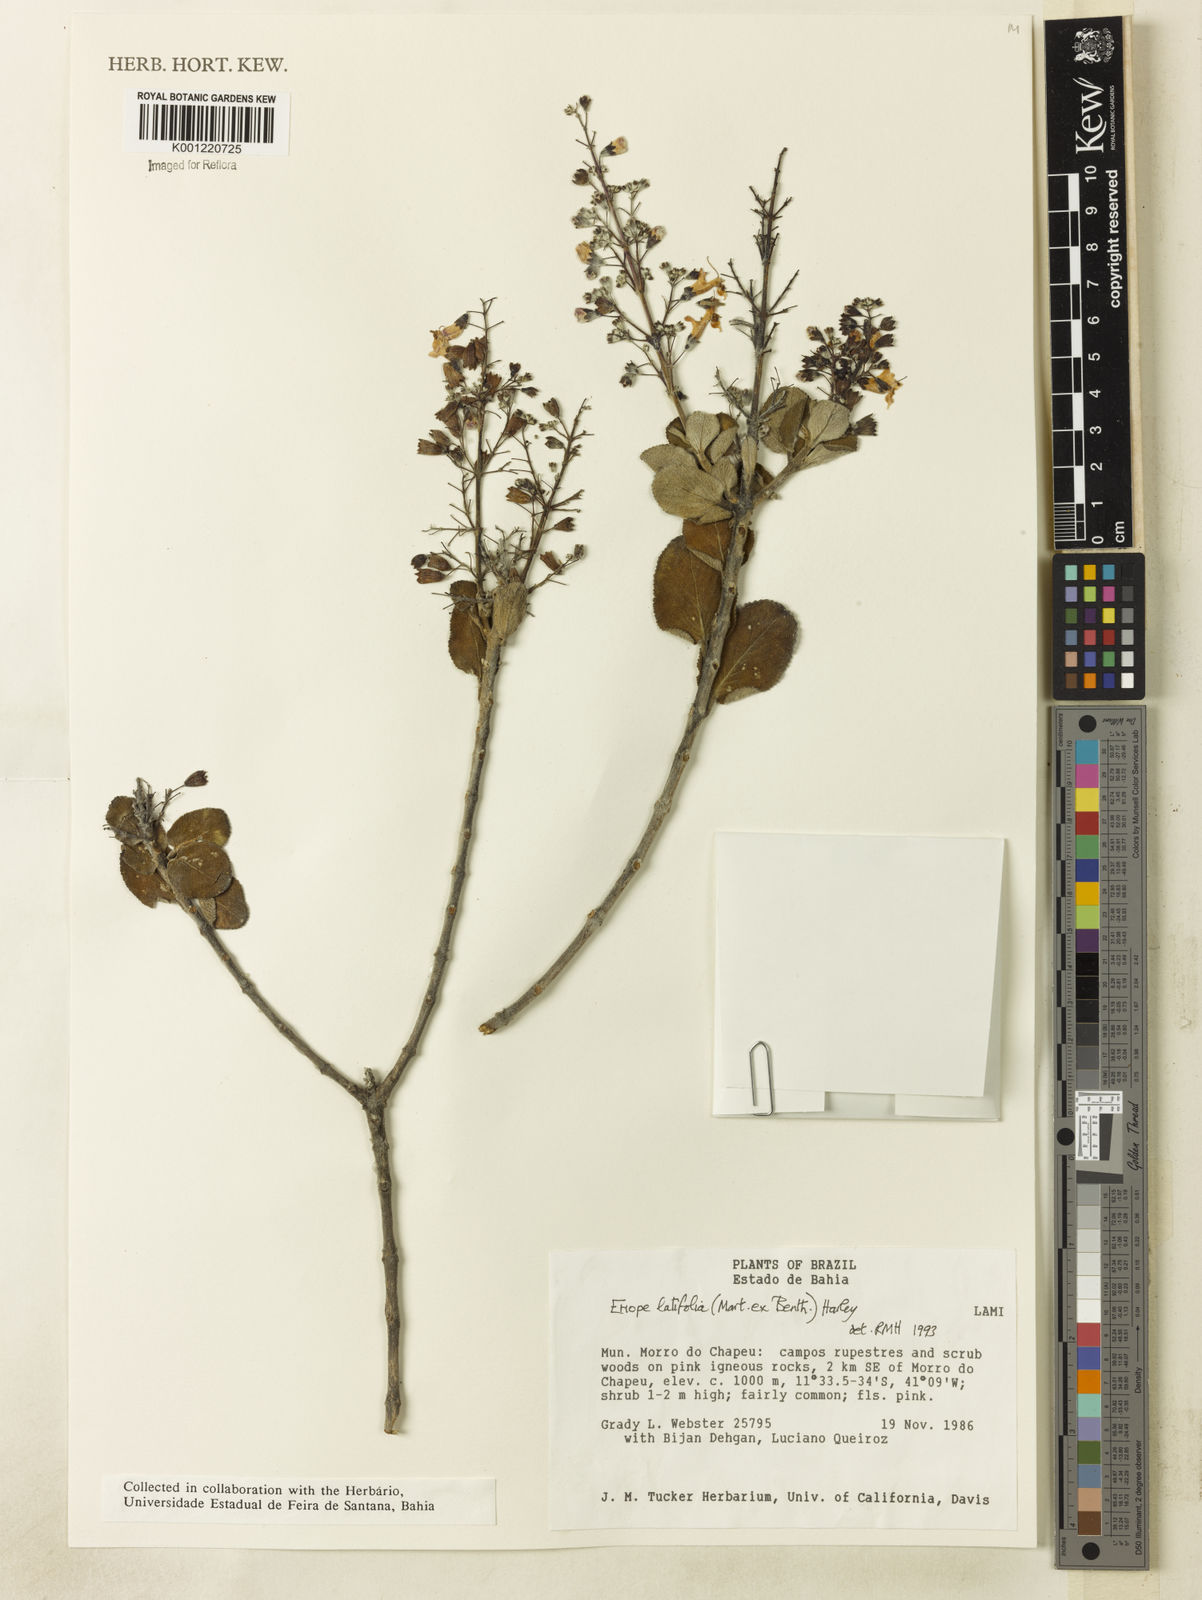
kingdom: Plantae
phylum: Tracheophyta
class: Magnoliopsida
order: Lamiales
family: Lamiaceae
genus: Eriope
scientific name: Eriope latifolia
